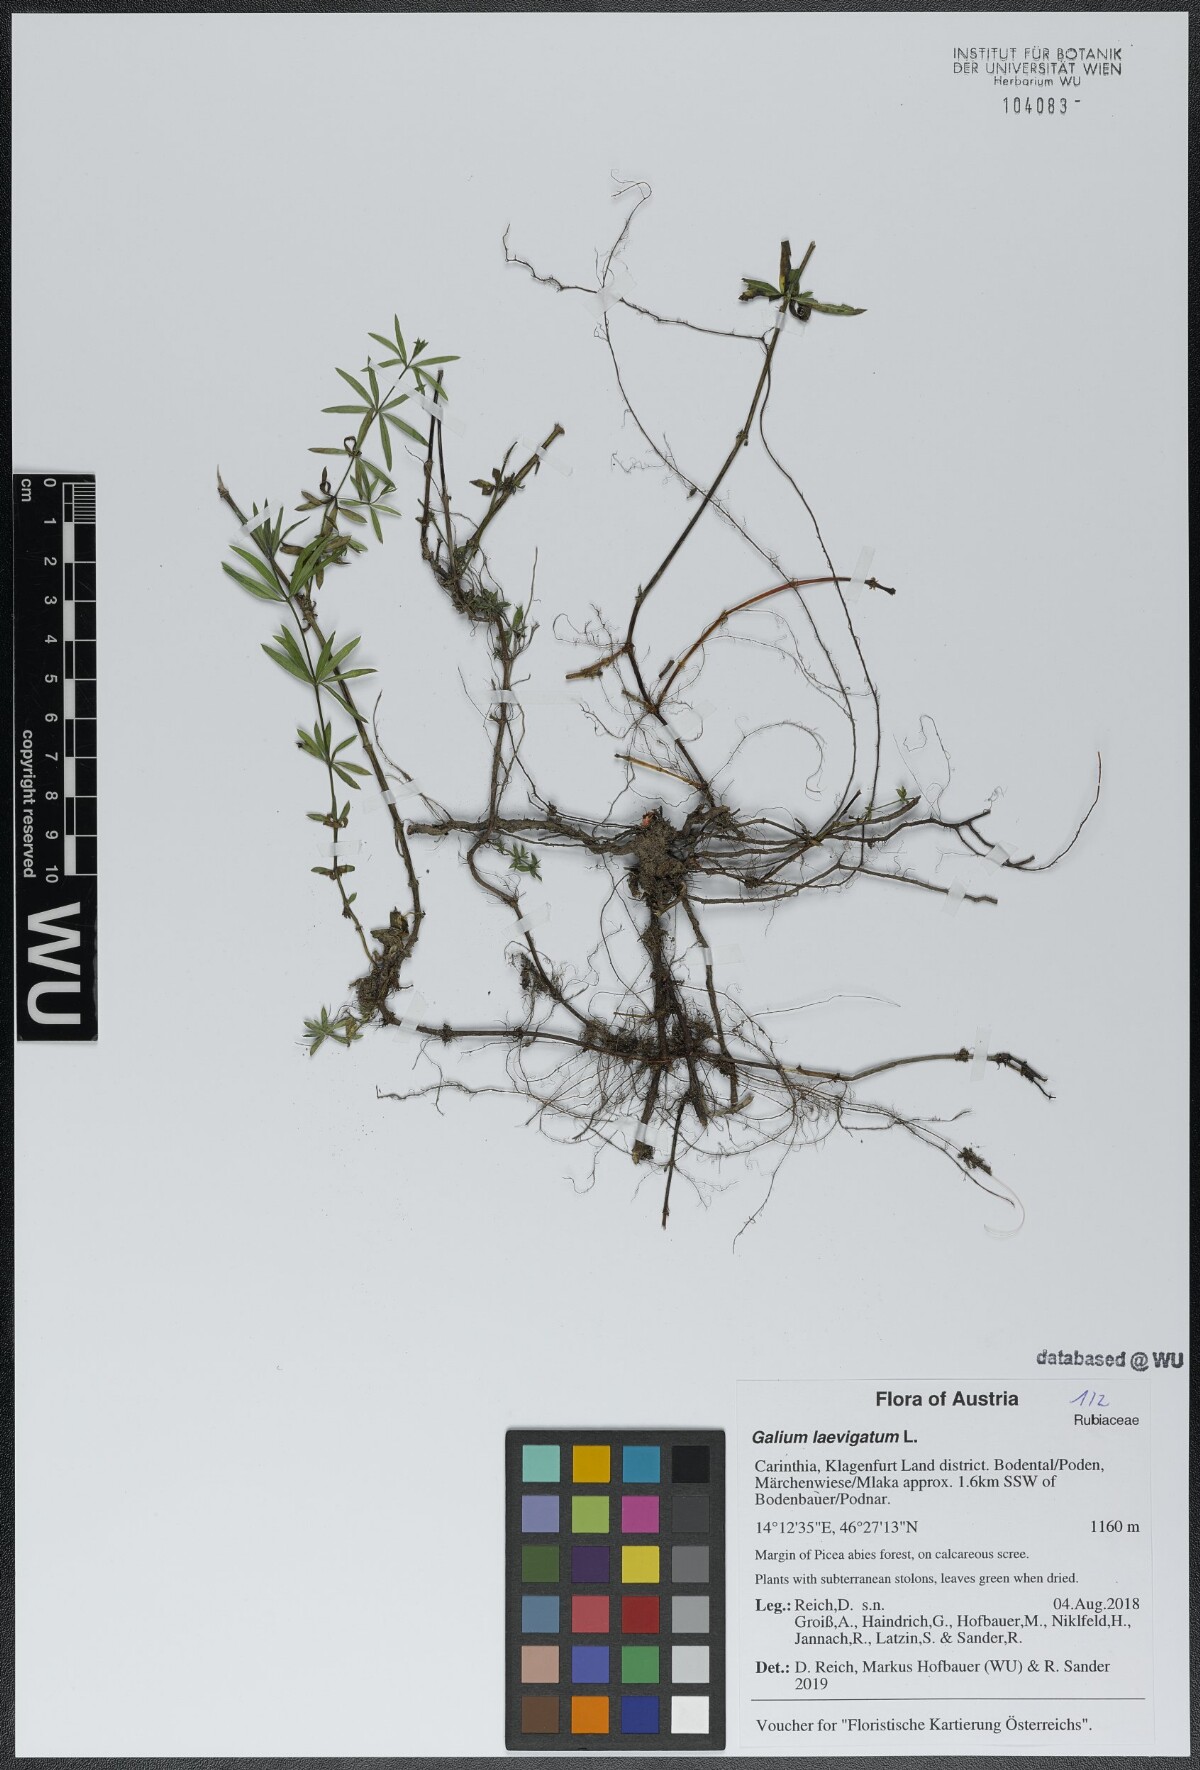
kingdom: Plantae
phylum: Tracheophyta
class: Magnoliopsida
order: Gentianales
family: Rubiaceae
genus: Galium
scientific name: Galium laevigatum
